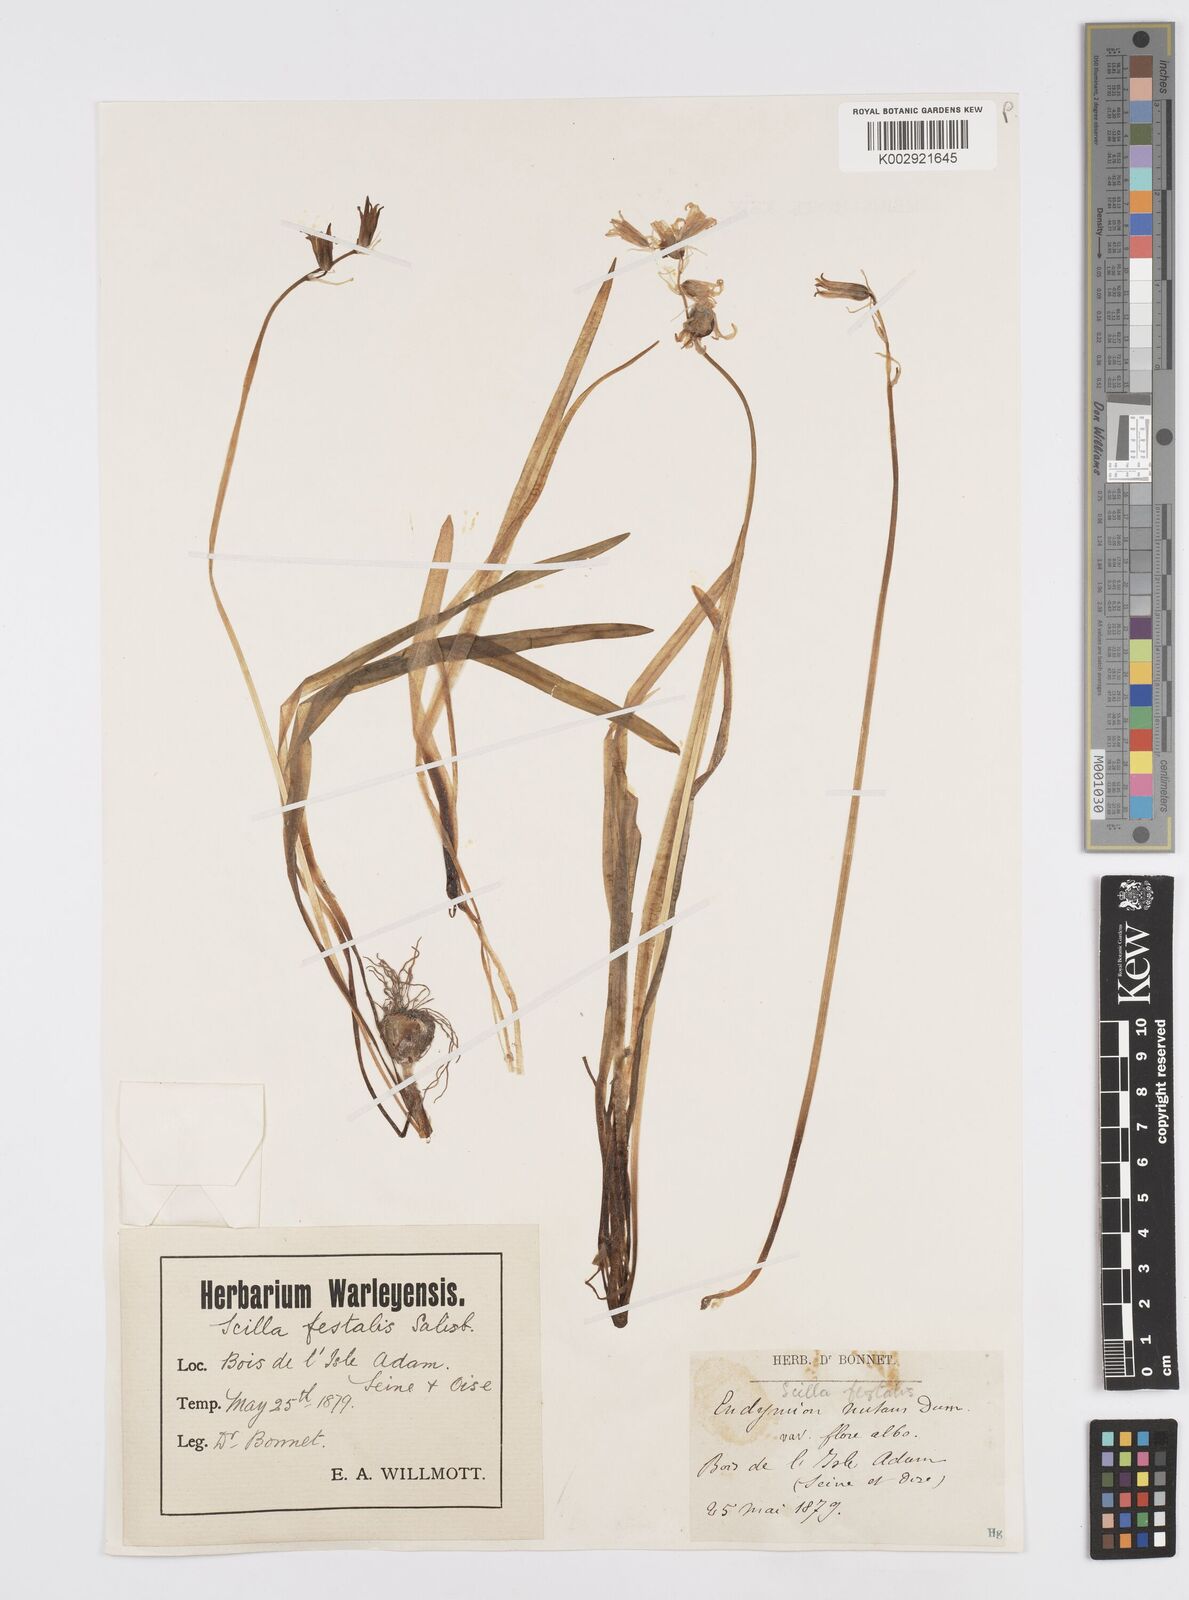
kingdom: Plantae
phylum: Tracheophyta
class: Liliopsida
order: Asparagales
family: Asparagaceae
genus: Hyacinthoides
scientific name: Hyacinthoides non-scripta
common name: Bluebell
